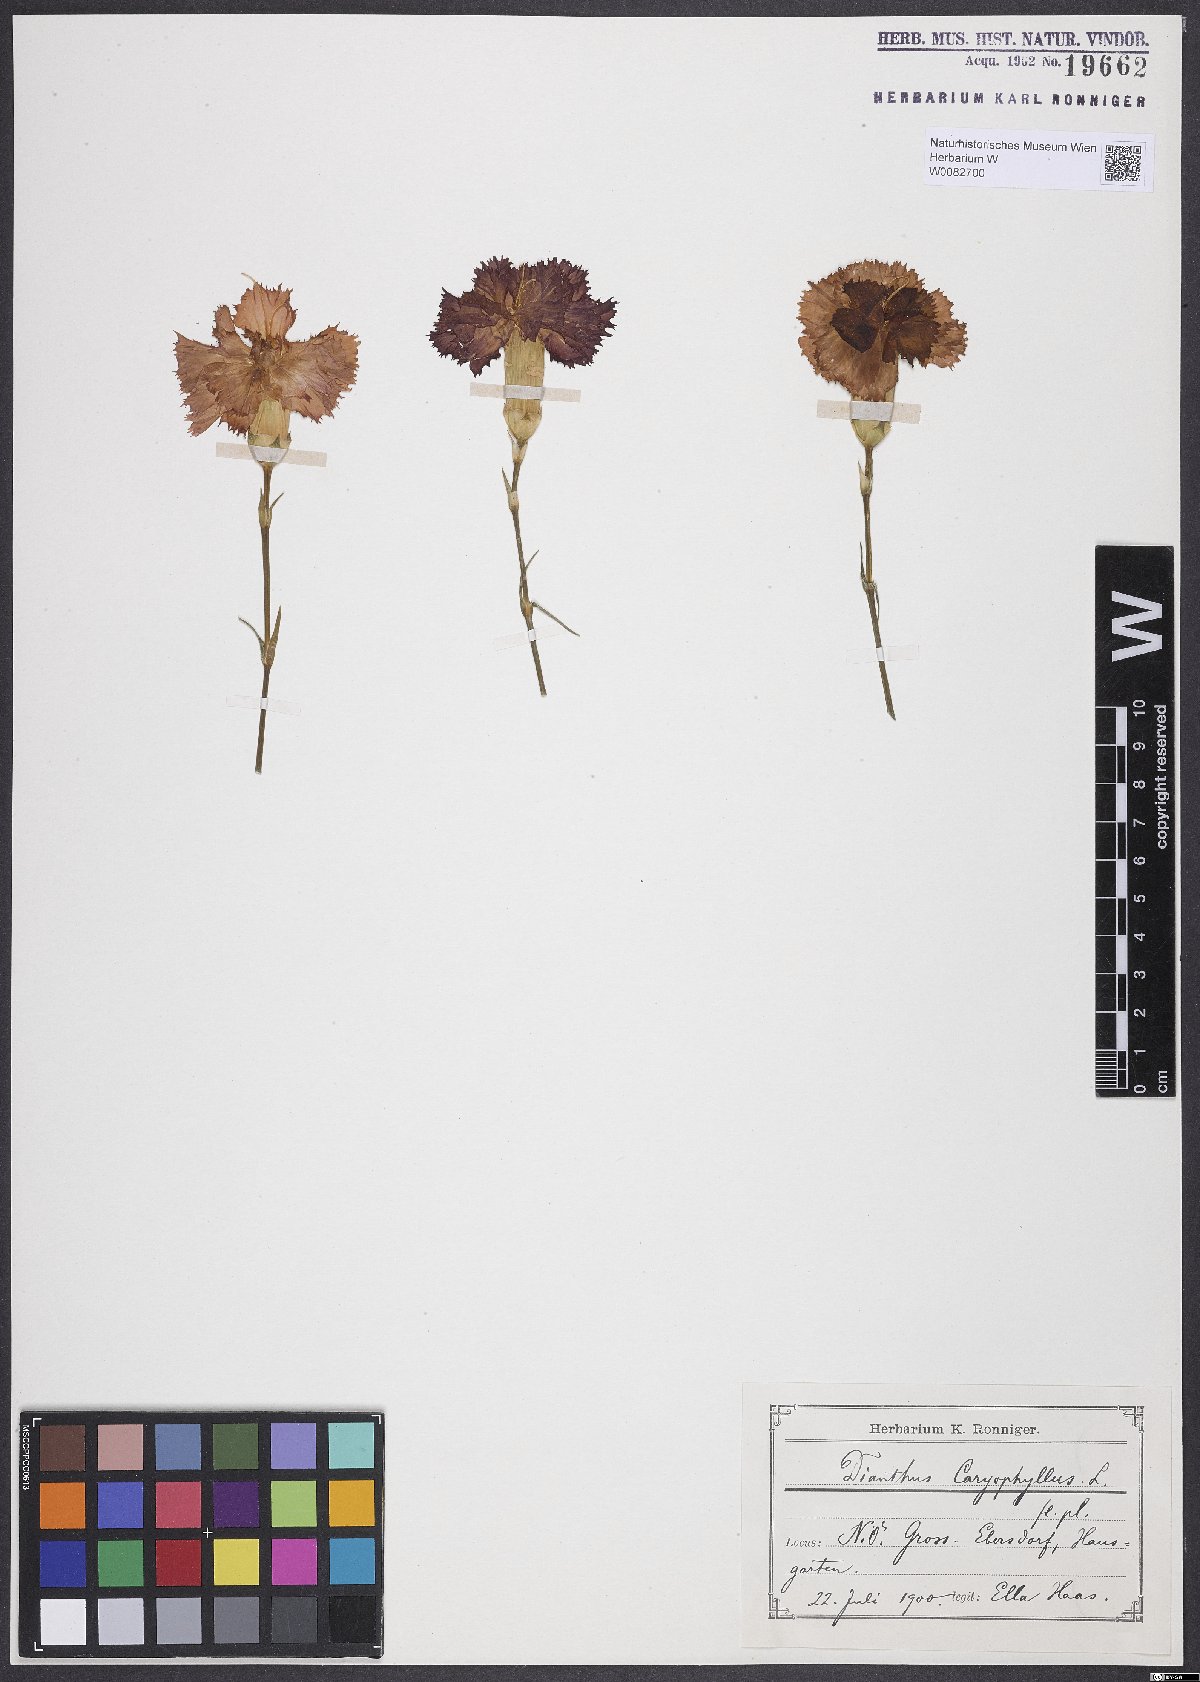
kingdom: Plantae
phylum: Tracheophyta
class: Magnoliopsida
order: Caryophyllales
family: Caryophyllaceae
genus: Dianthus
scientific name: Dianthus caryophyllus
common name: Clove pink
